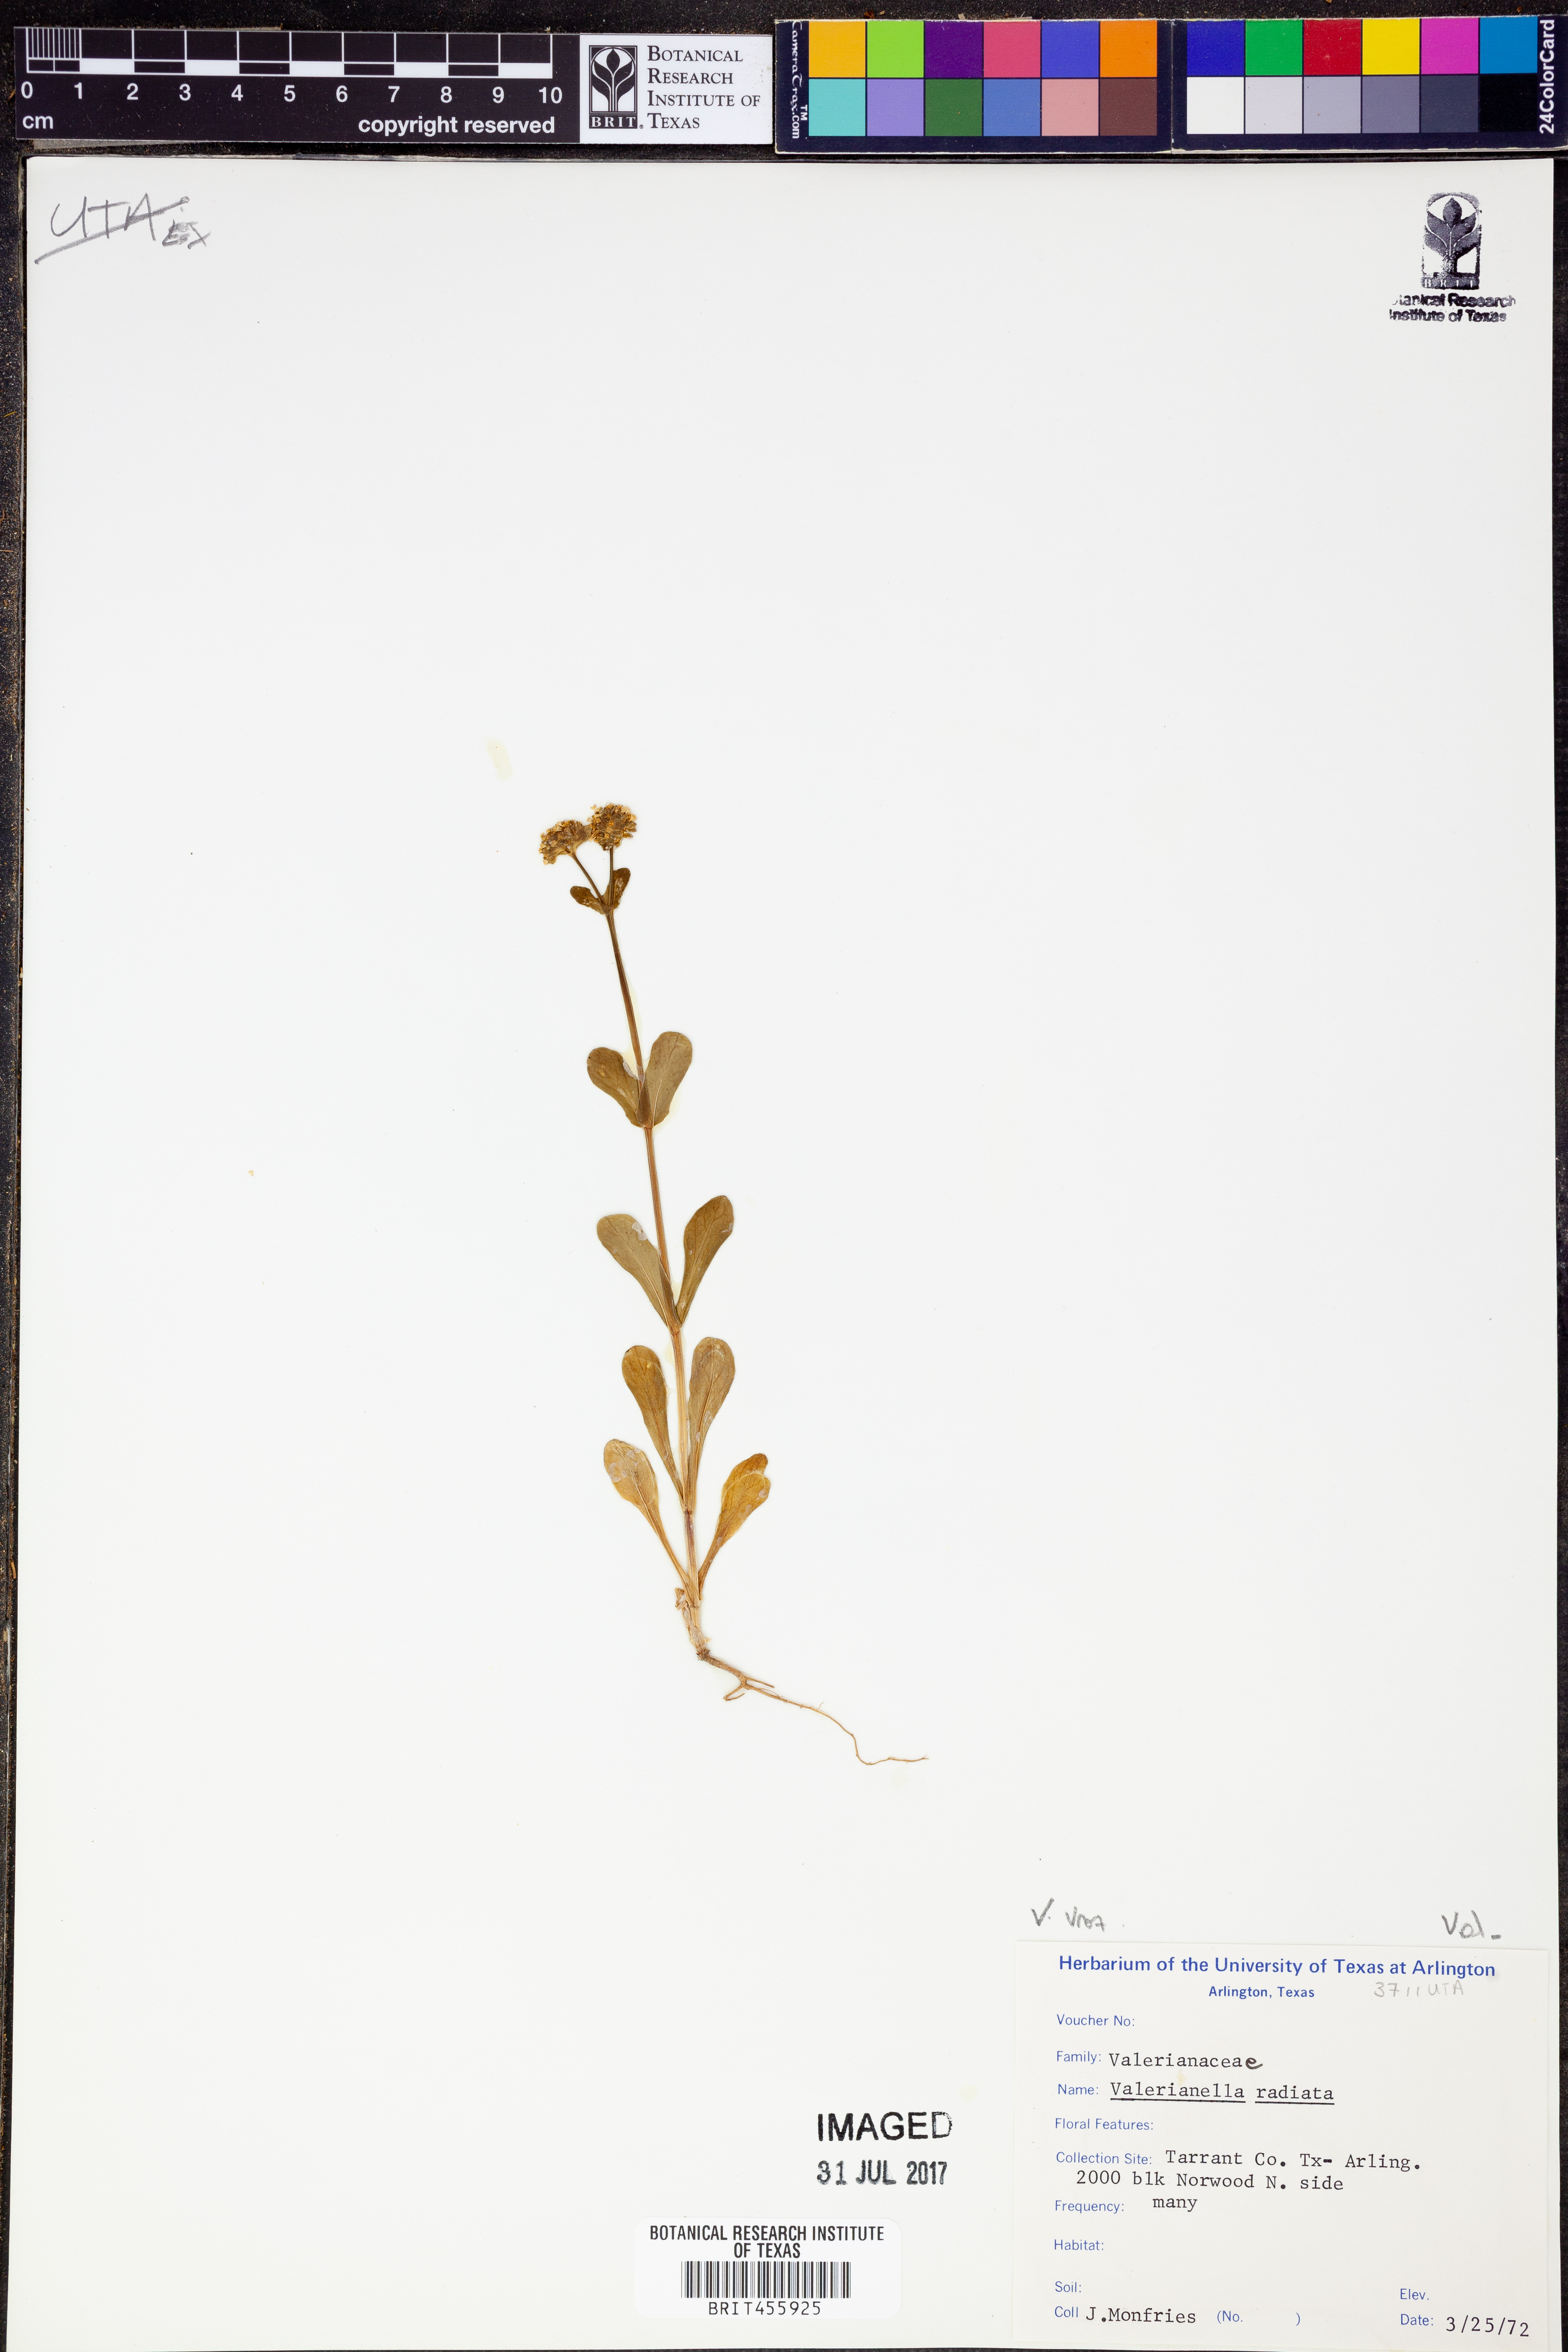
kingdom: Plantae
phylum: Tracheophyta
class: Magnoliopsida
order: Dipsacales
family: Caprifoliaceae
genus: Valerianella
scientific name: Valerianella radiata
